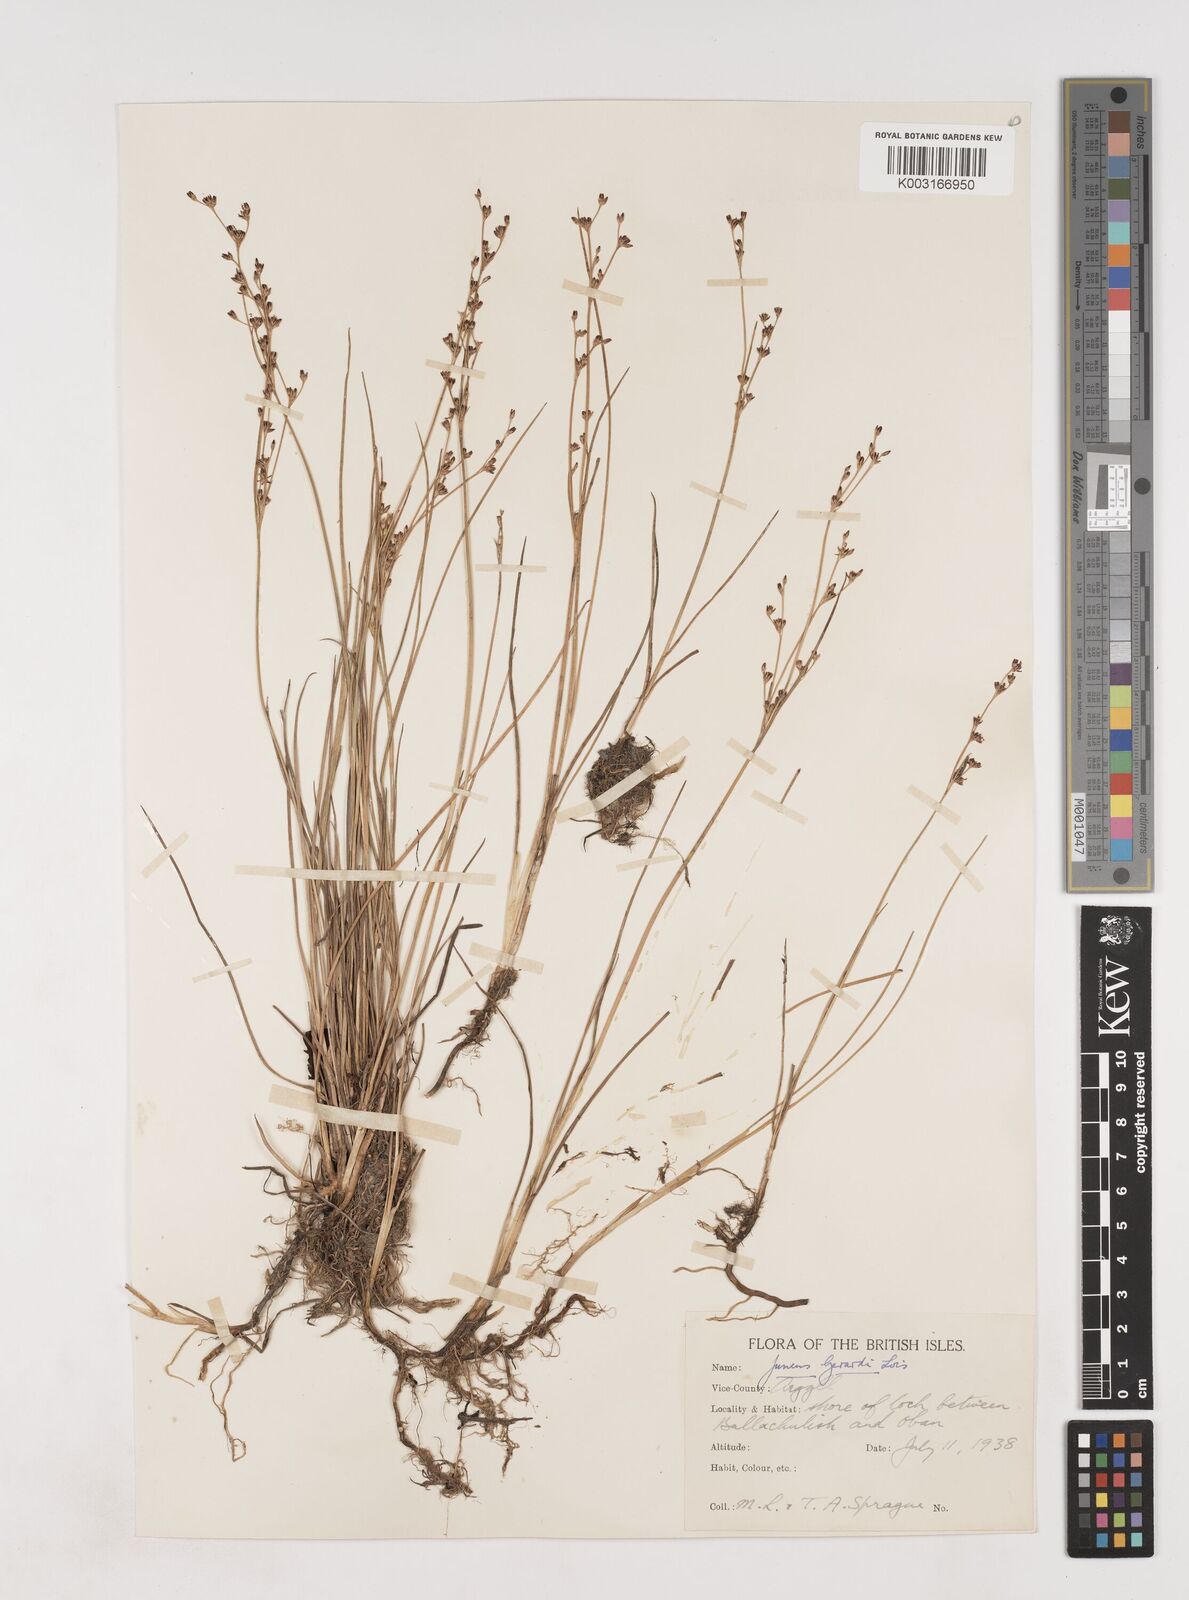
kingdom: Plantae
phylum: Tracheophyta
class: Liliopsida
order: Poales
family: Juncaceae
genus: Juncus
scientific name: Juncus gerardi
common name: Saltmarsh rush
